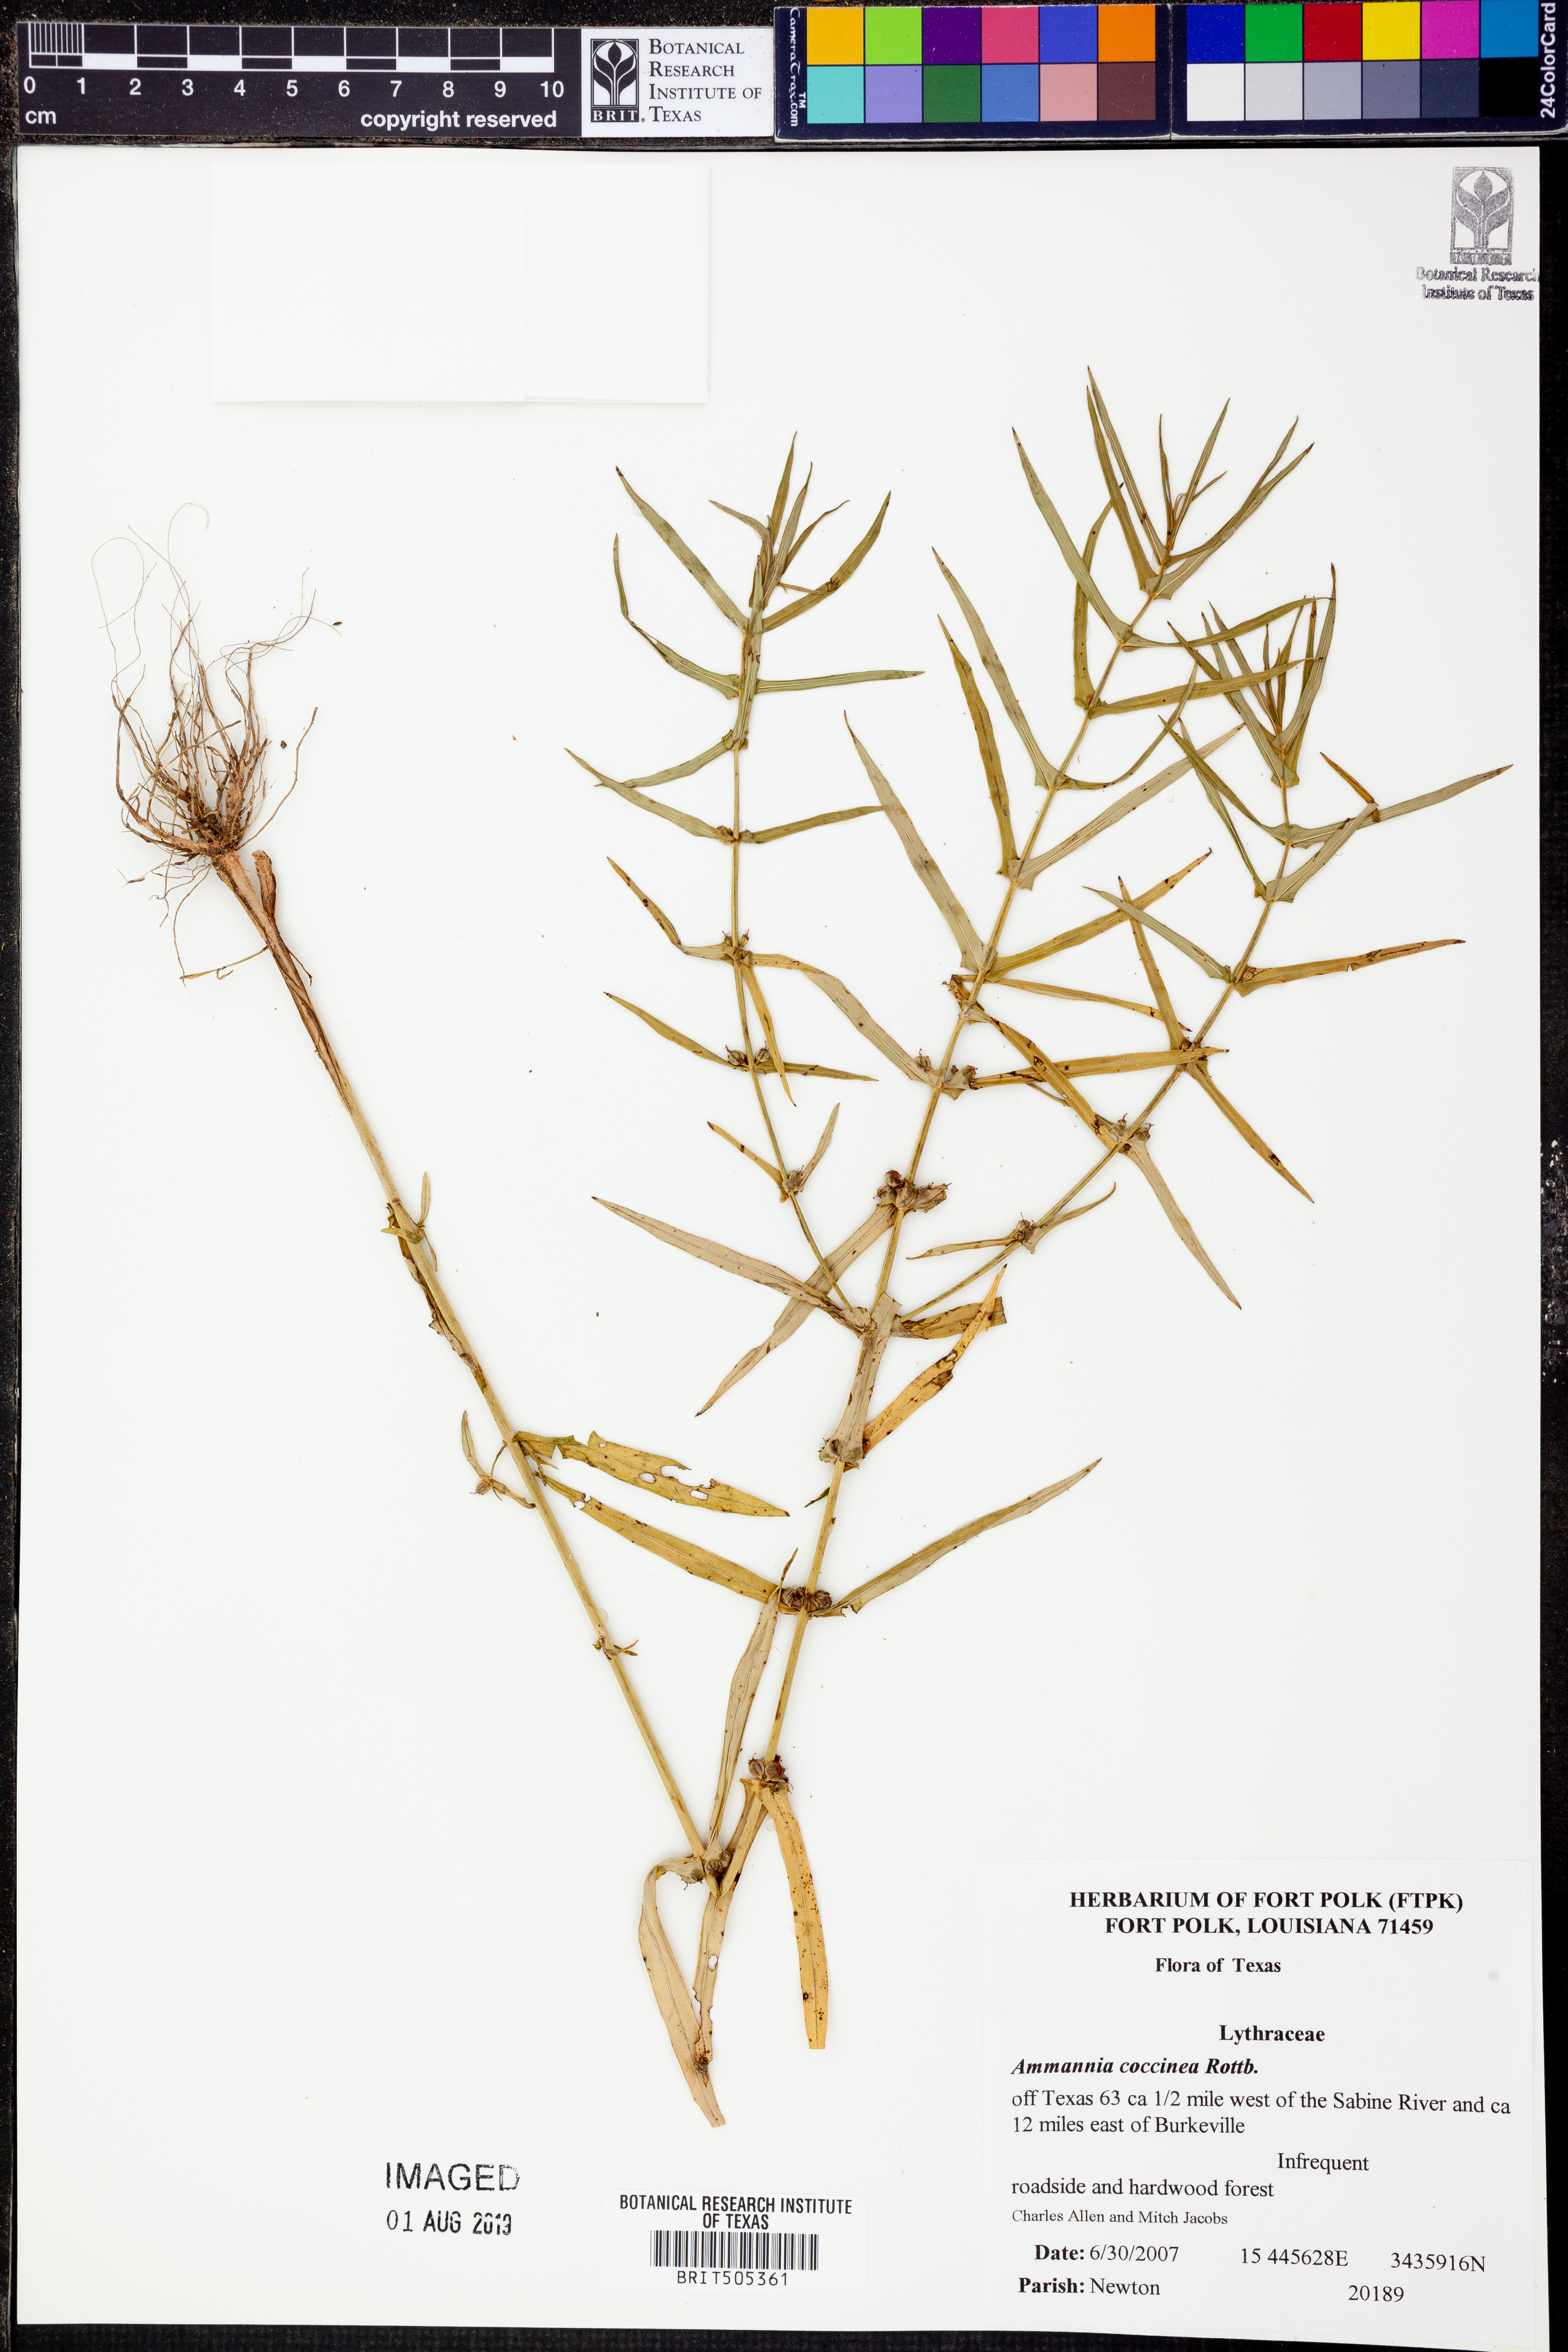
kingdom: Plantae
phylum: Tracheophyta
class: Magnoliopsida
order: Myrtales
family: Lythraceae
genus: Ammannia
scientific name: Ammannia coccinea
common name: Valley redstem
